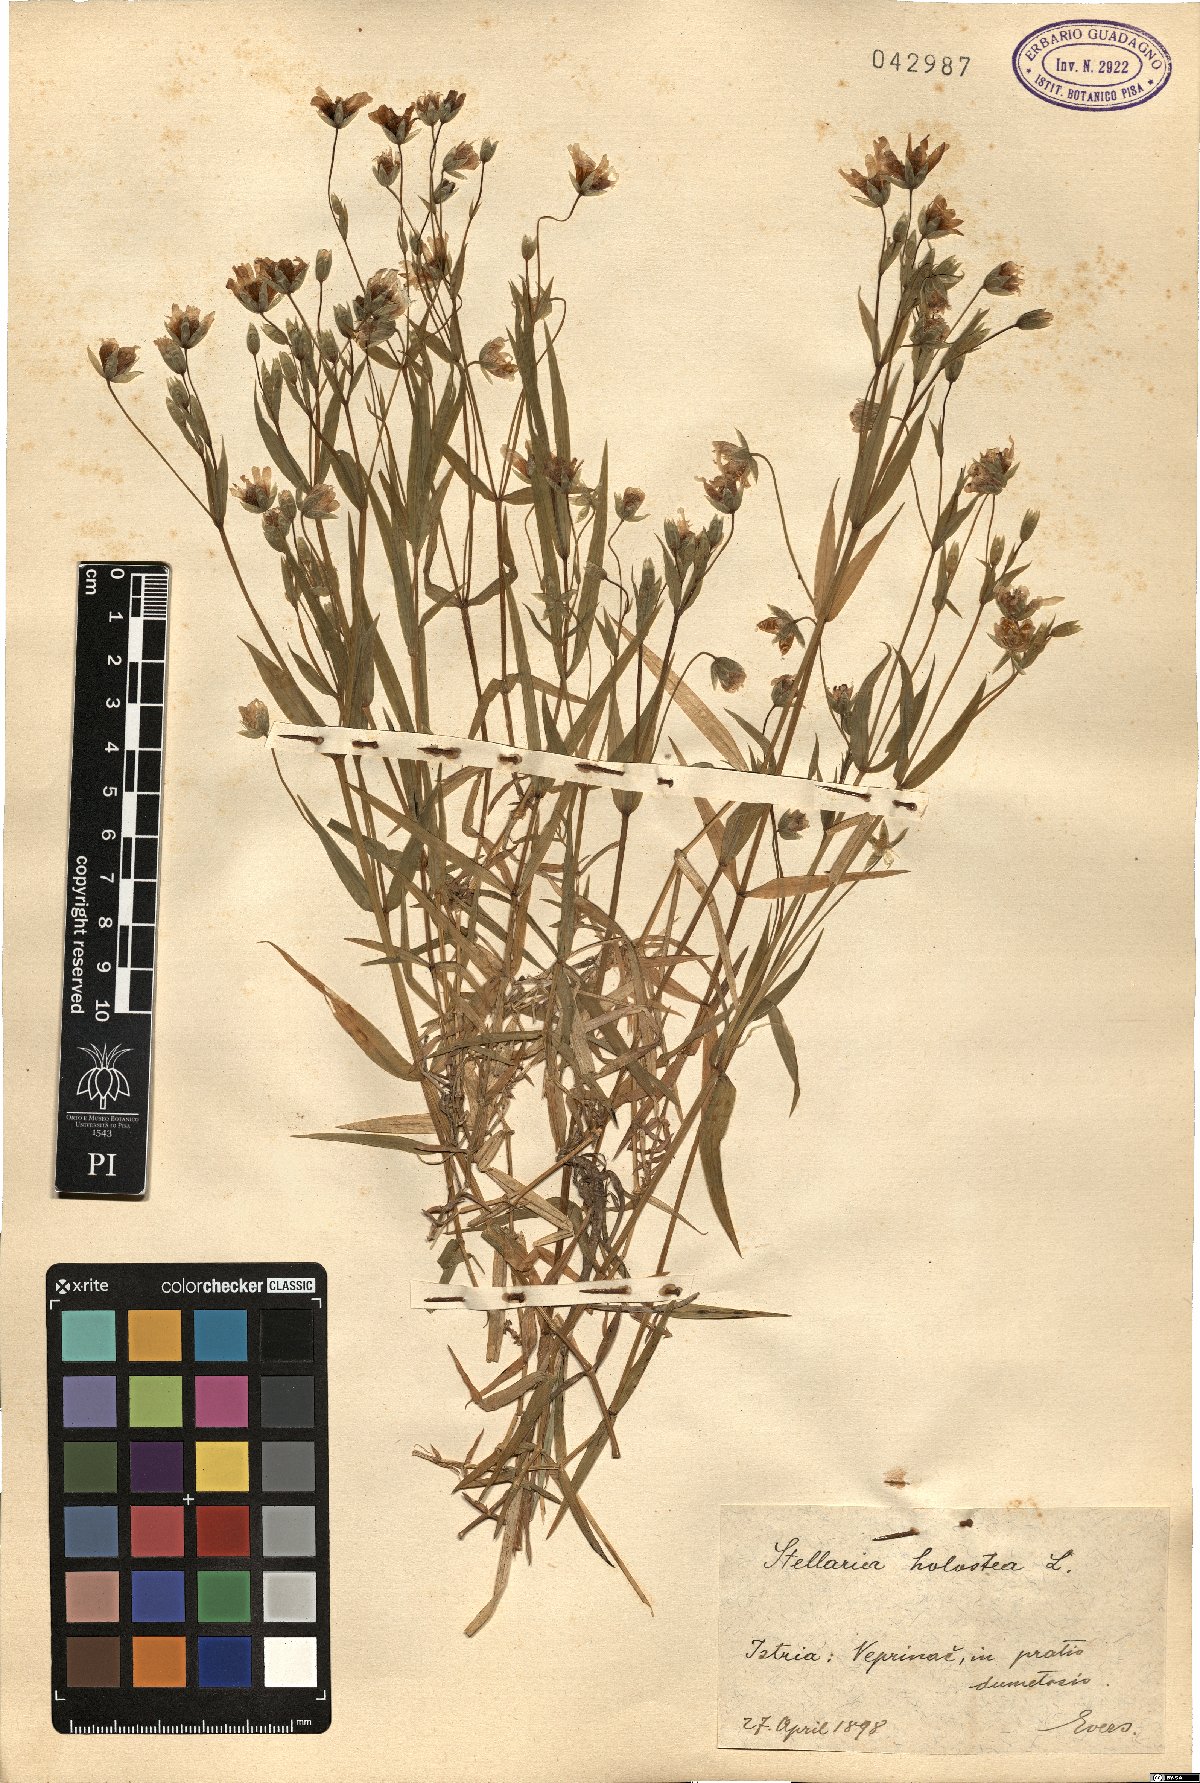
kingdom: Plantae
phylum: Tracheophyta
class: Magnoliopsida
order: Caryophyllales
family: Caryophyllaceae
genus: Rabelera
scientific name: Rabelera holostea
